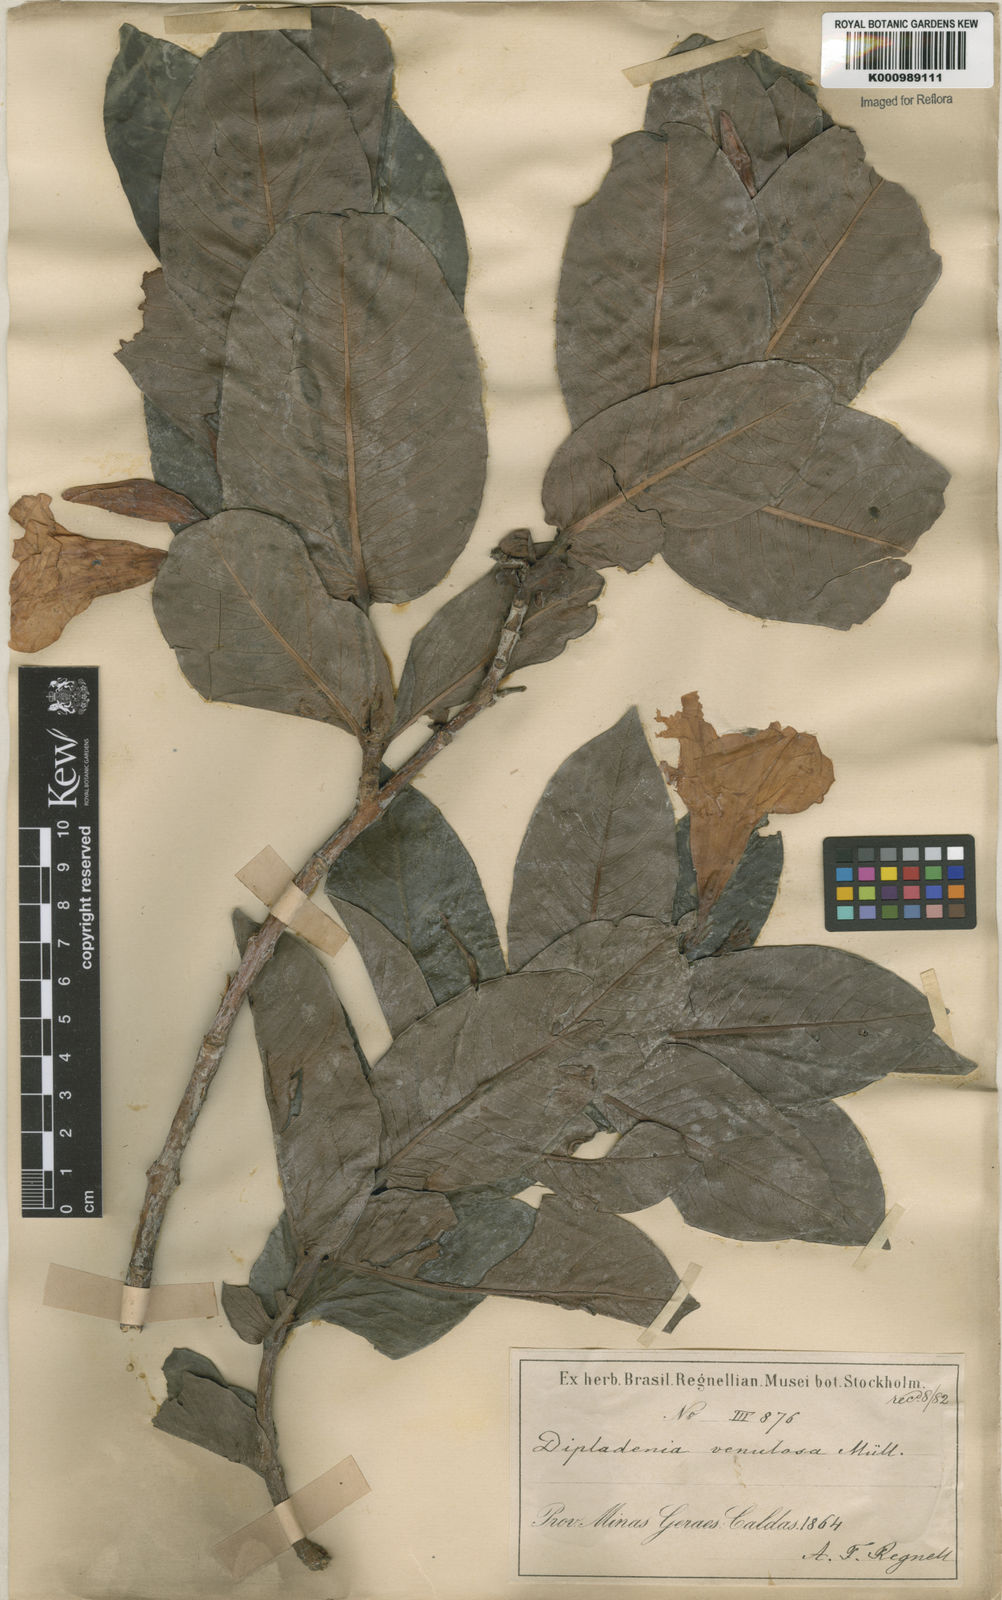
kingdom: Plantae
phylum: Tracheophyta
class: Magnoliopsida
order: Gentianales
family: Apocynaceae
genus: Mandevilla
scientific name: Mandevilla
